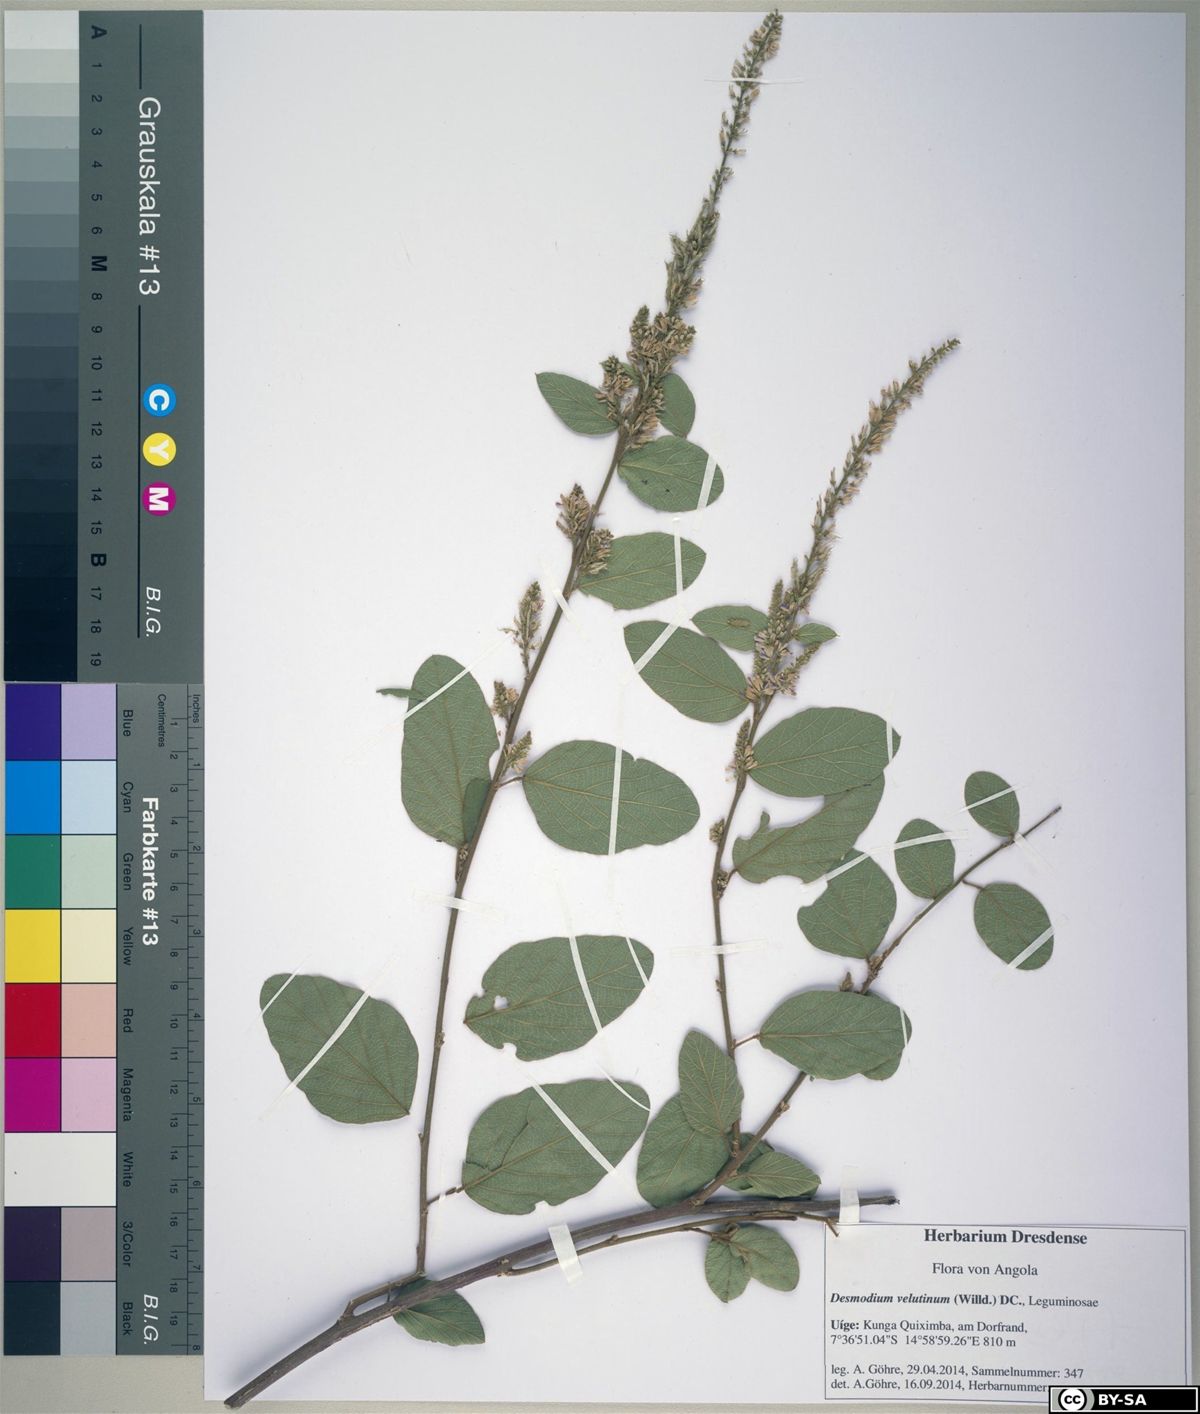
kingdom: Plantae
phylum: Tracheophyta
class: Magnoliopsida
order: Fabales
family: Fabaceae
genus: Polhillides
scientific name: Polhillides velutina
